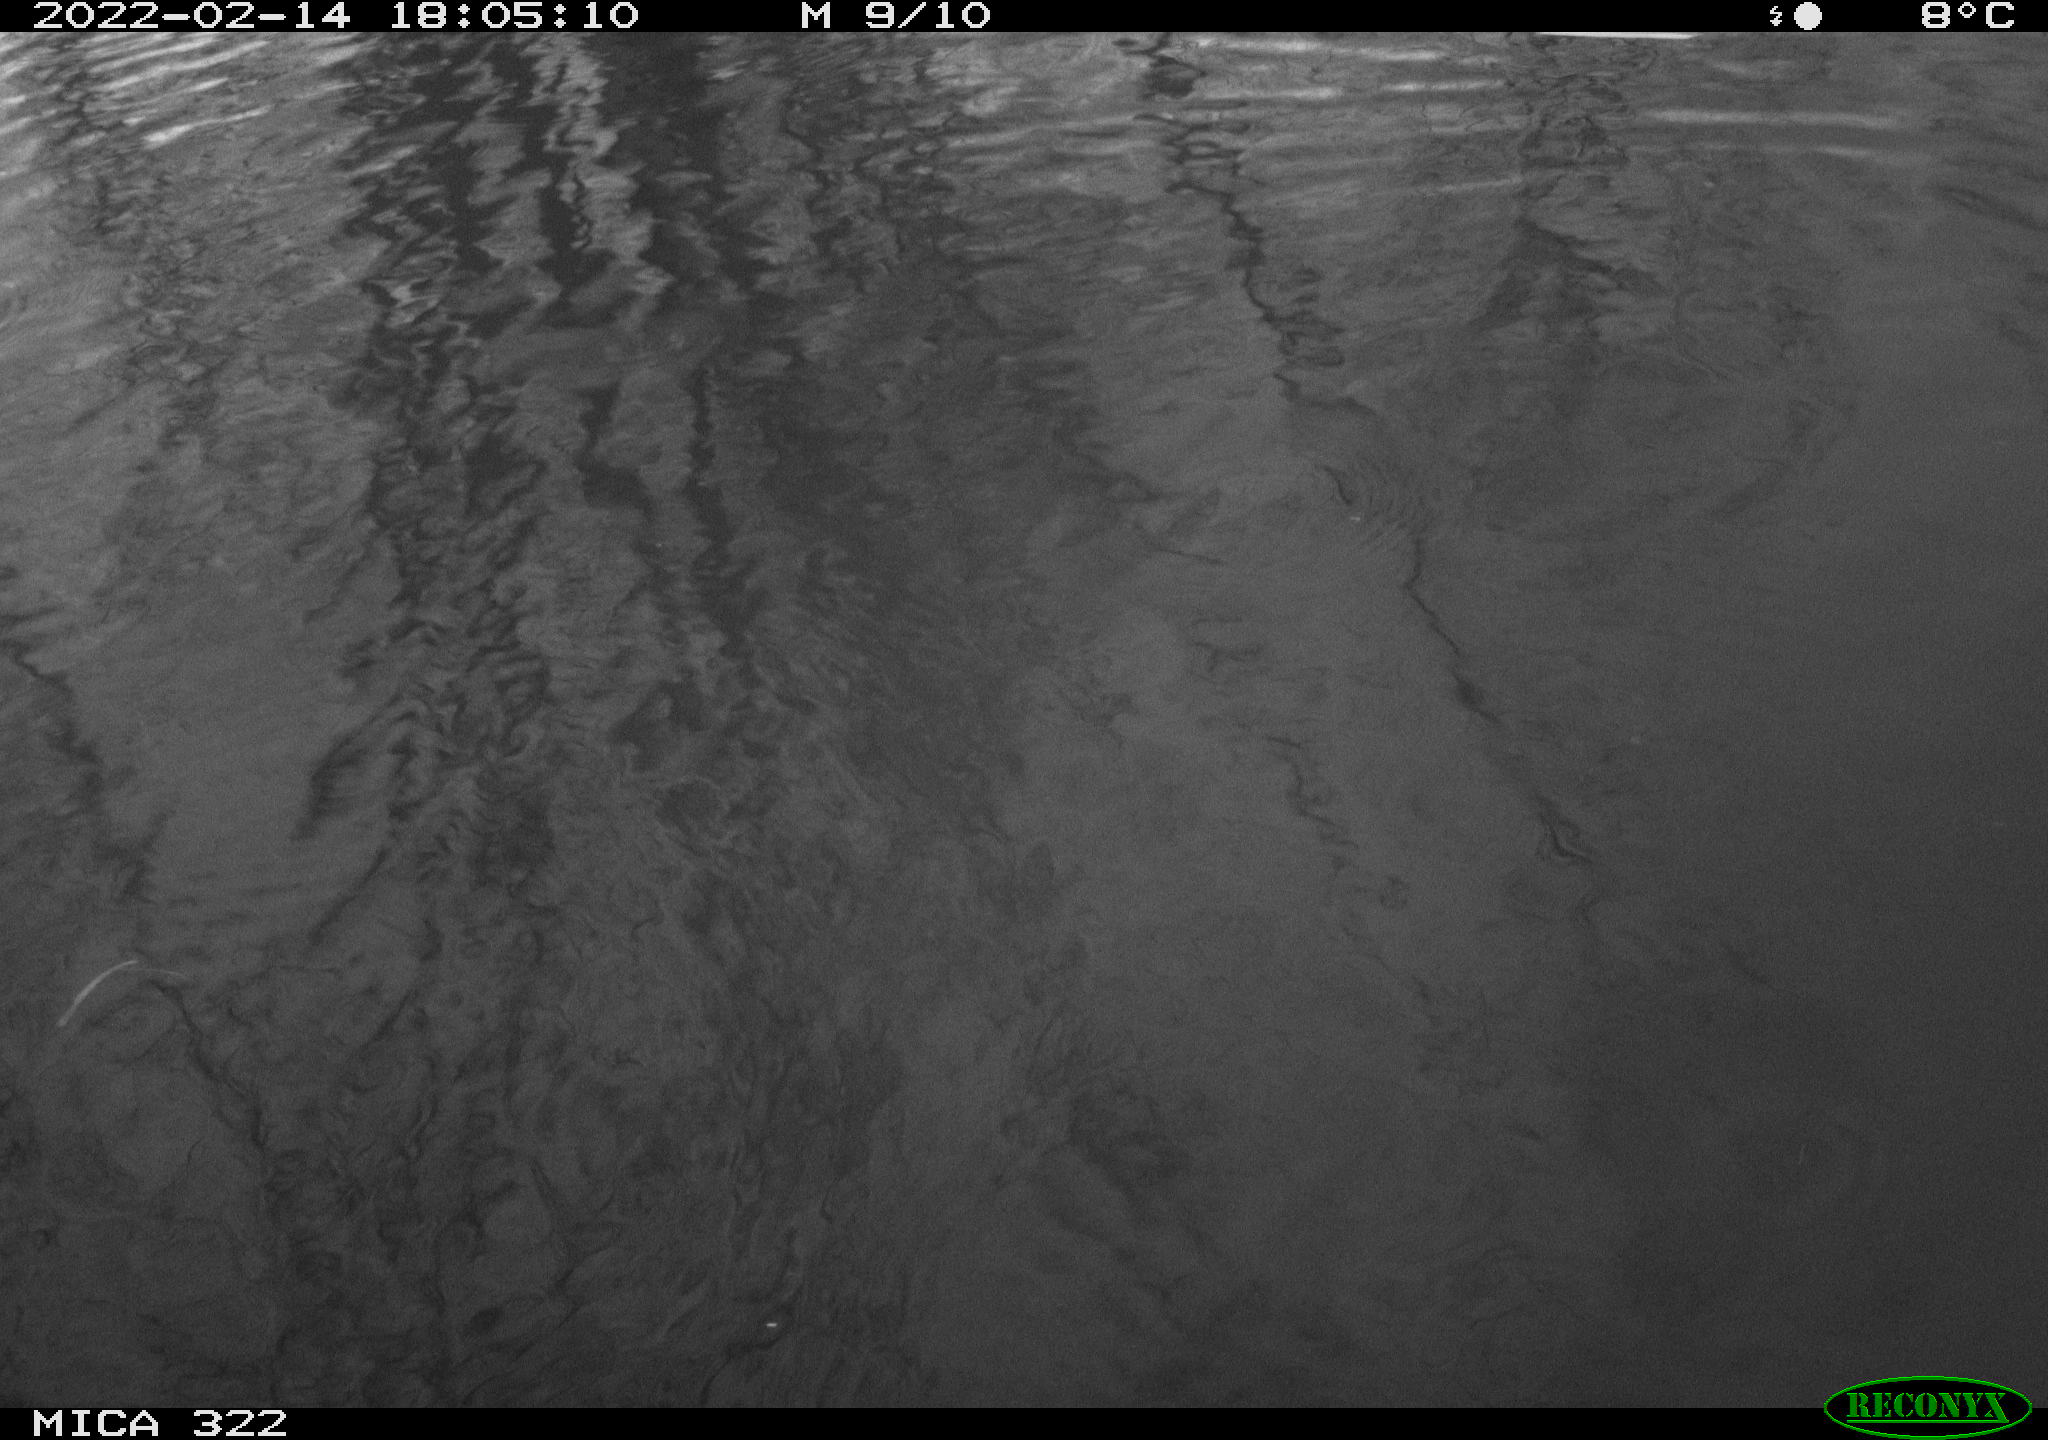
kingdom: Animalia
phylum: Chordata
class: Aves
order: Gruiformes
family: Rallidae
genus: Gallinula
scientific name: Gallinula chloropus
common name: Common moorhen
